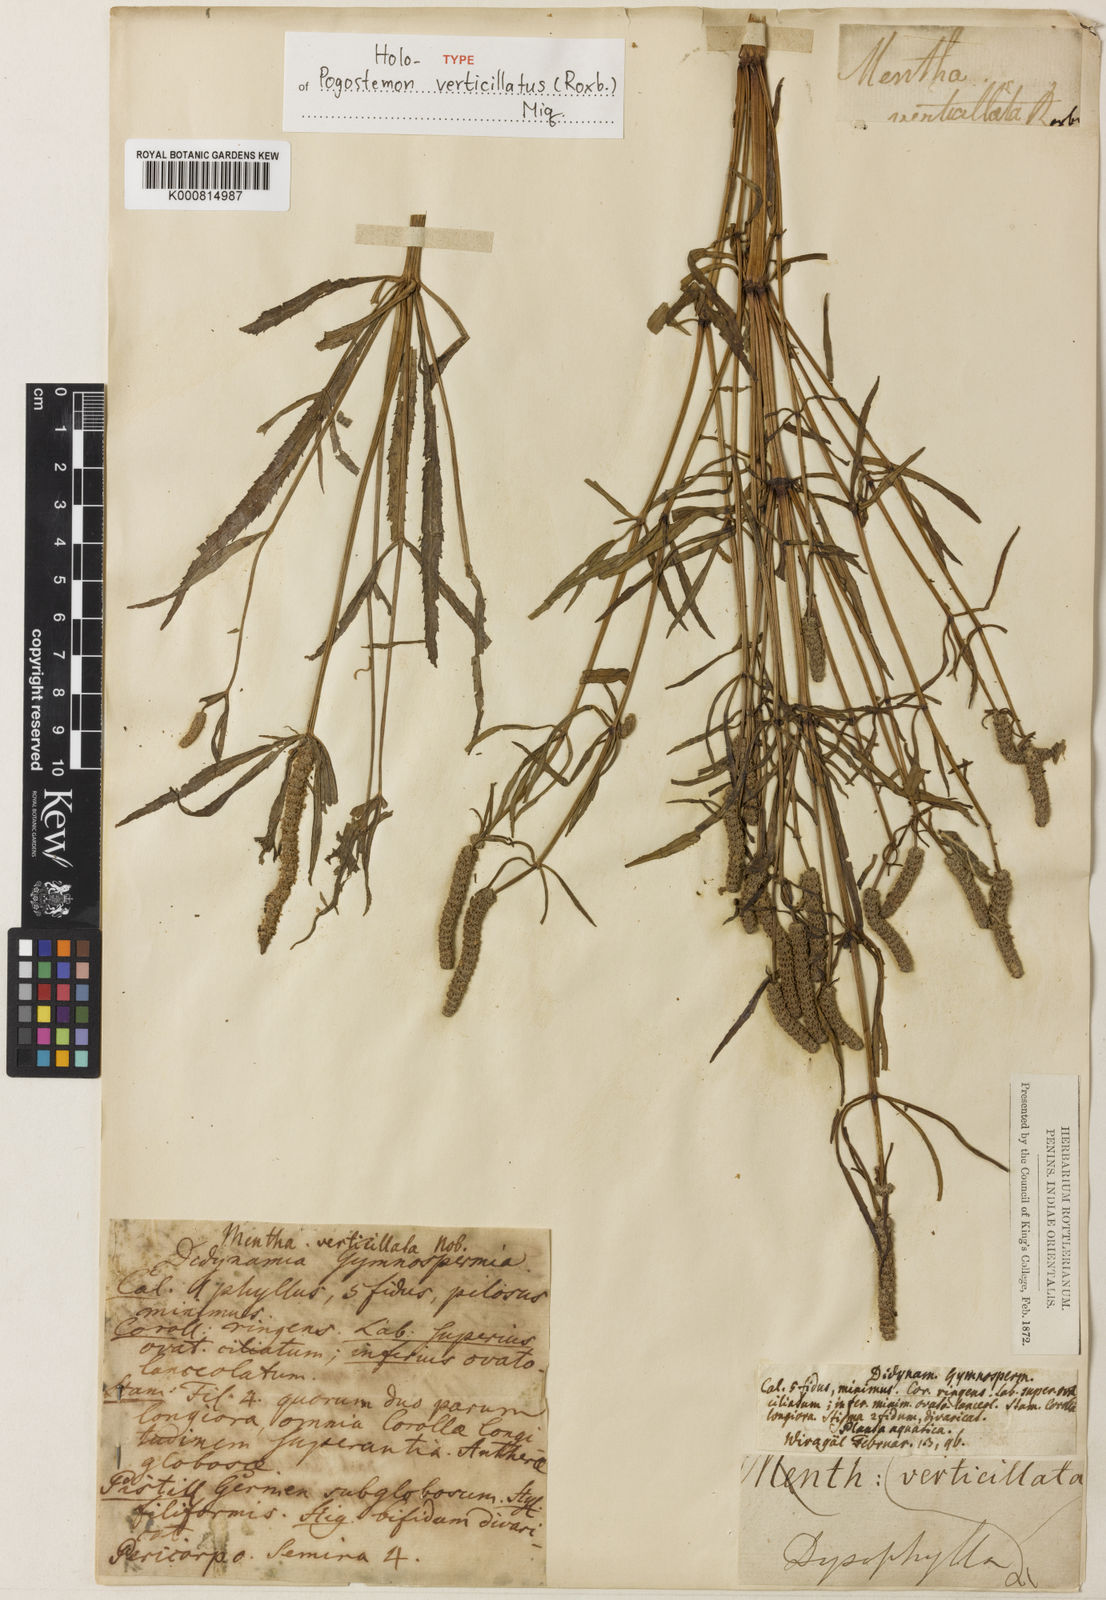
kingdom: Plantae
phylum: Tracheophyta
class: Magnoliopsida
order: Lamiales
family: Lamiaceae
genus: Pogostemon
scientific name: Pogostemon stellatus
